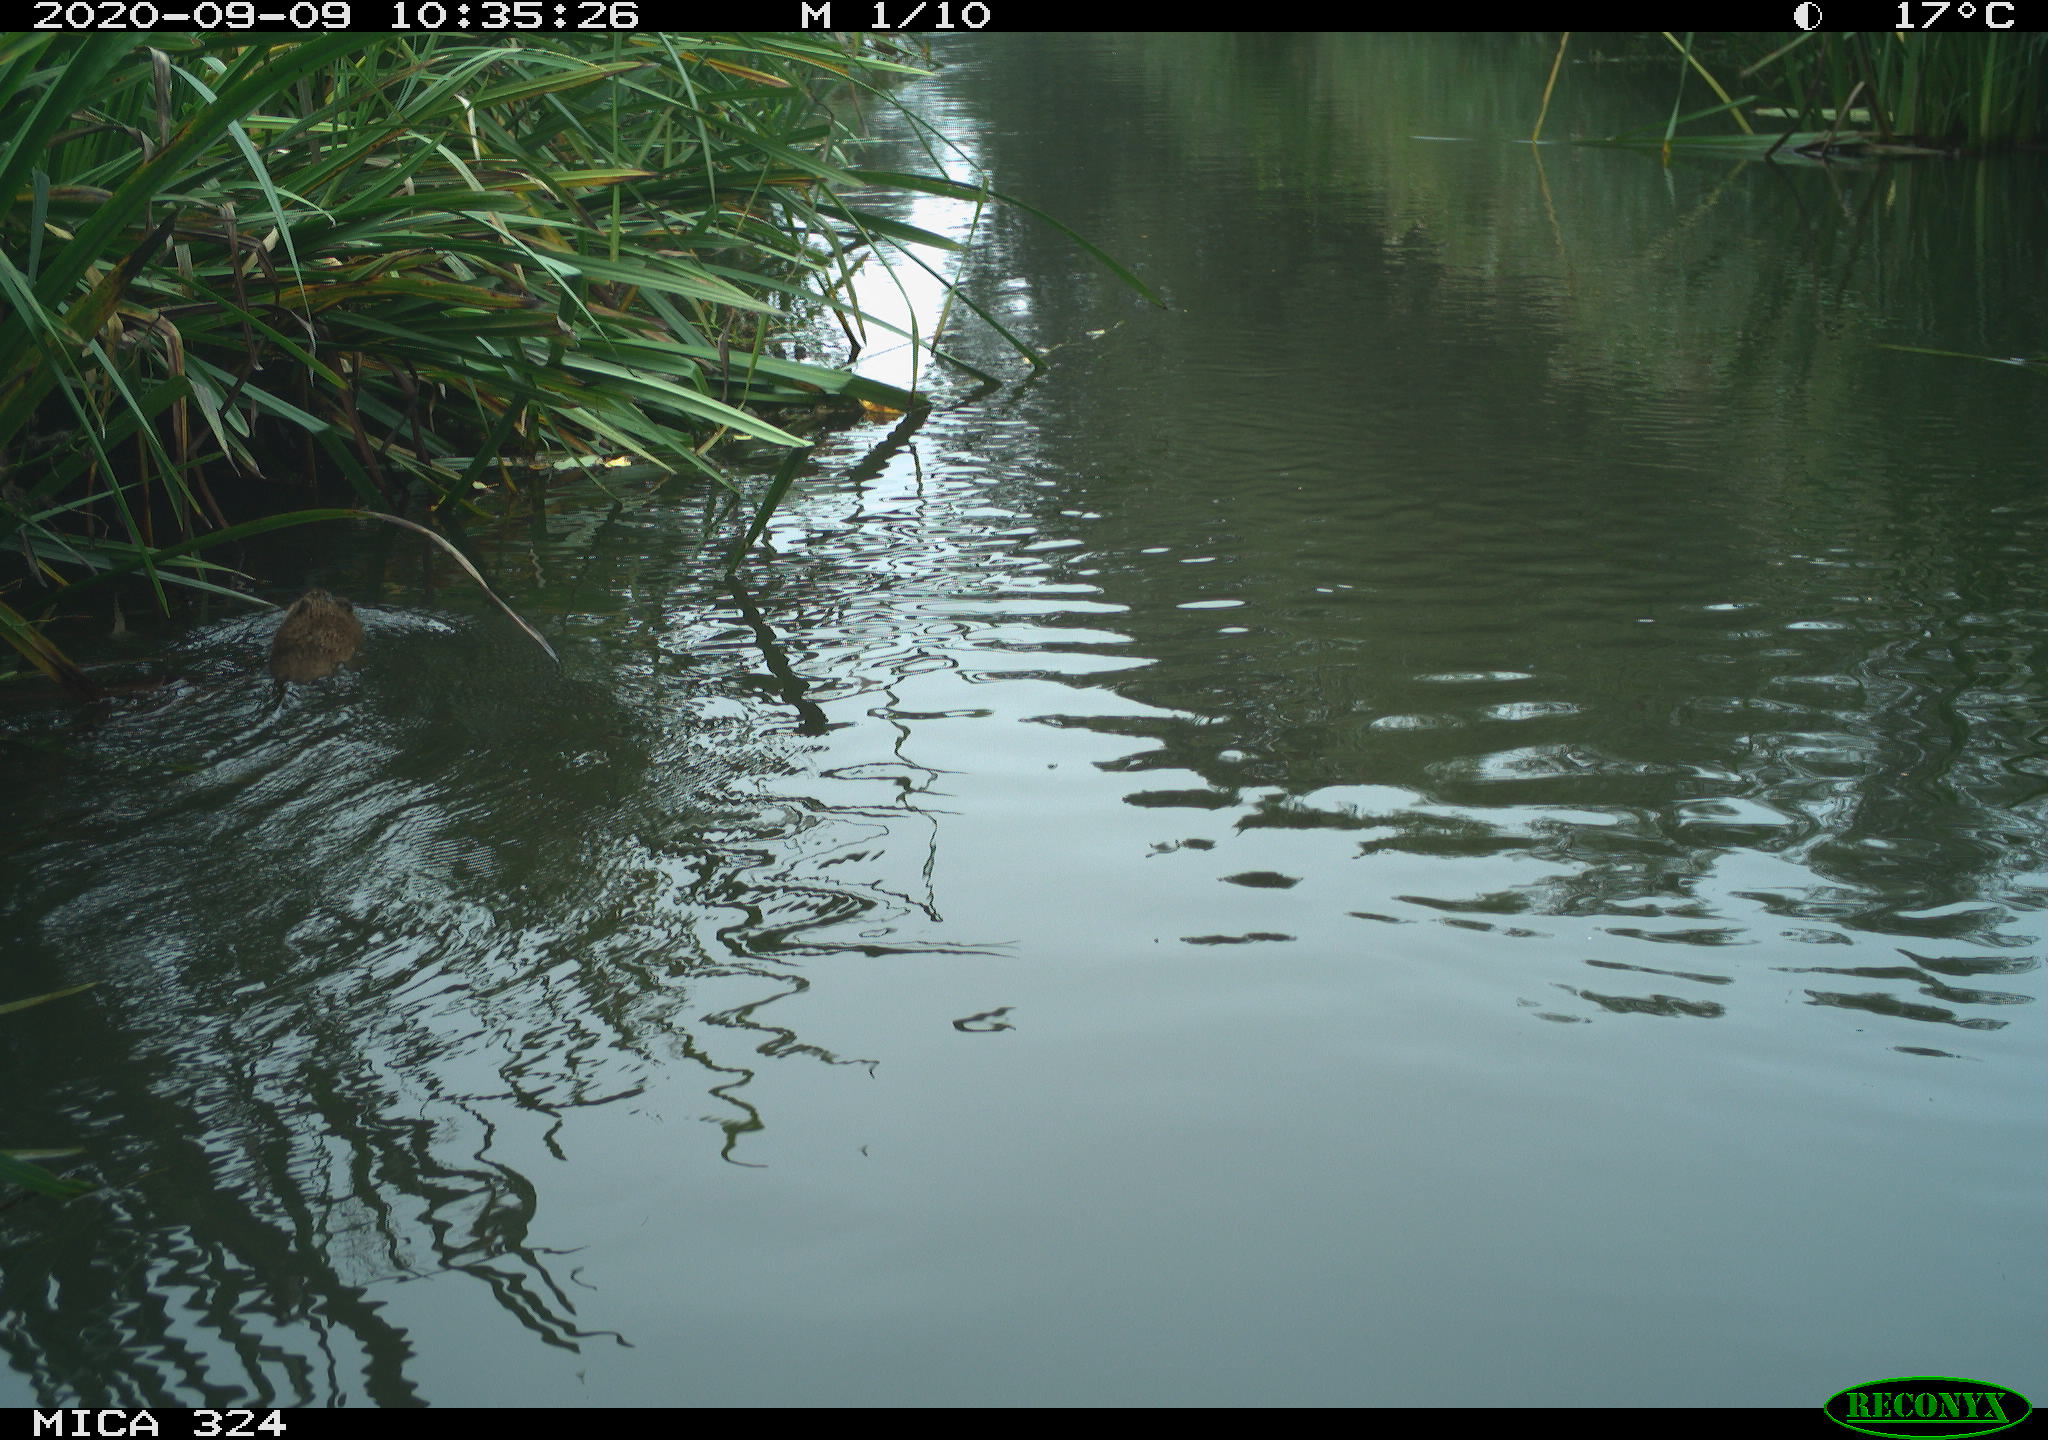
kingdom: Animalia
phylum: Chordata
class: Mammalia
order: Rodentia
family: Cricetidae
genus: Ondatra
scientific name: Ondatra zibethicus
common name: Muskrat
